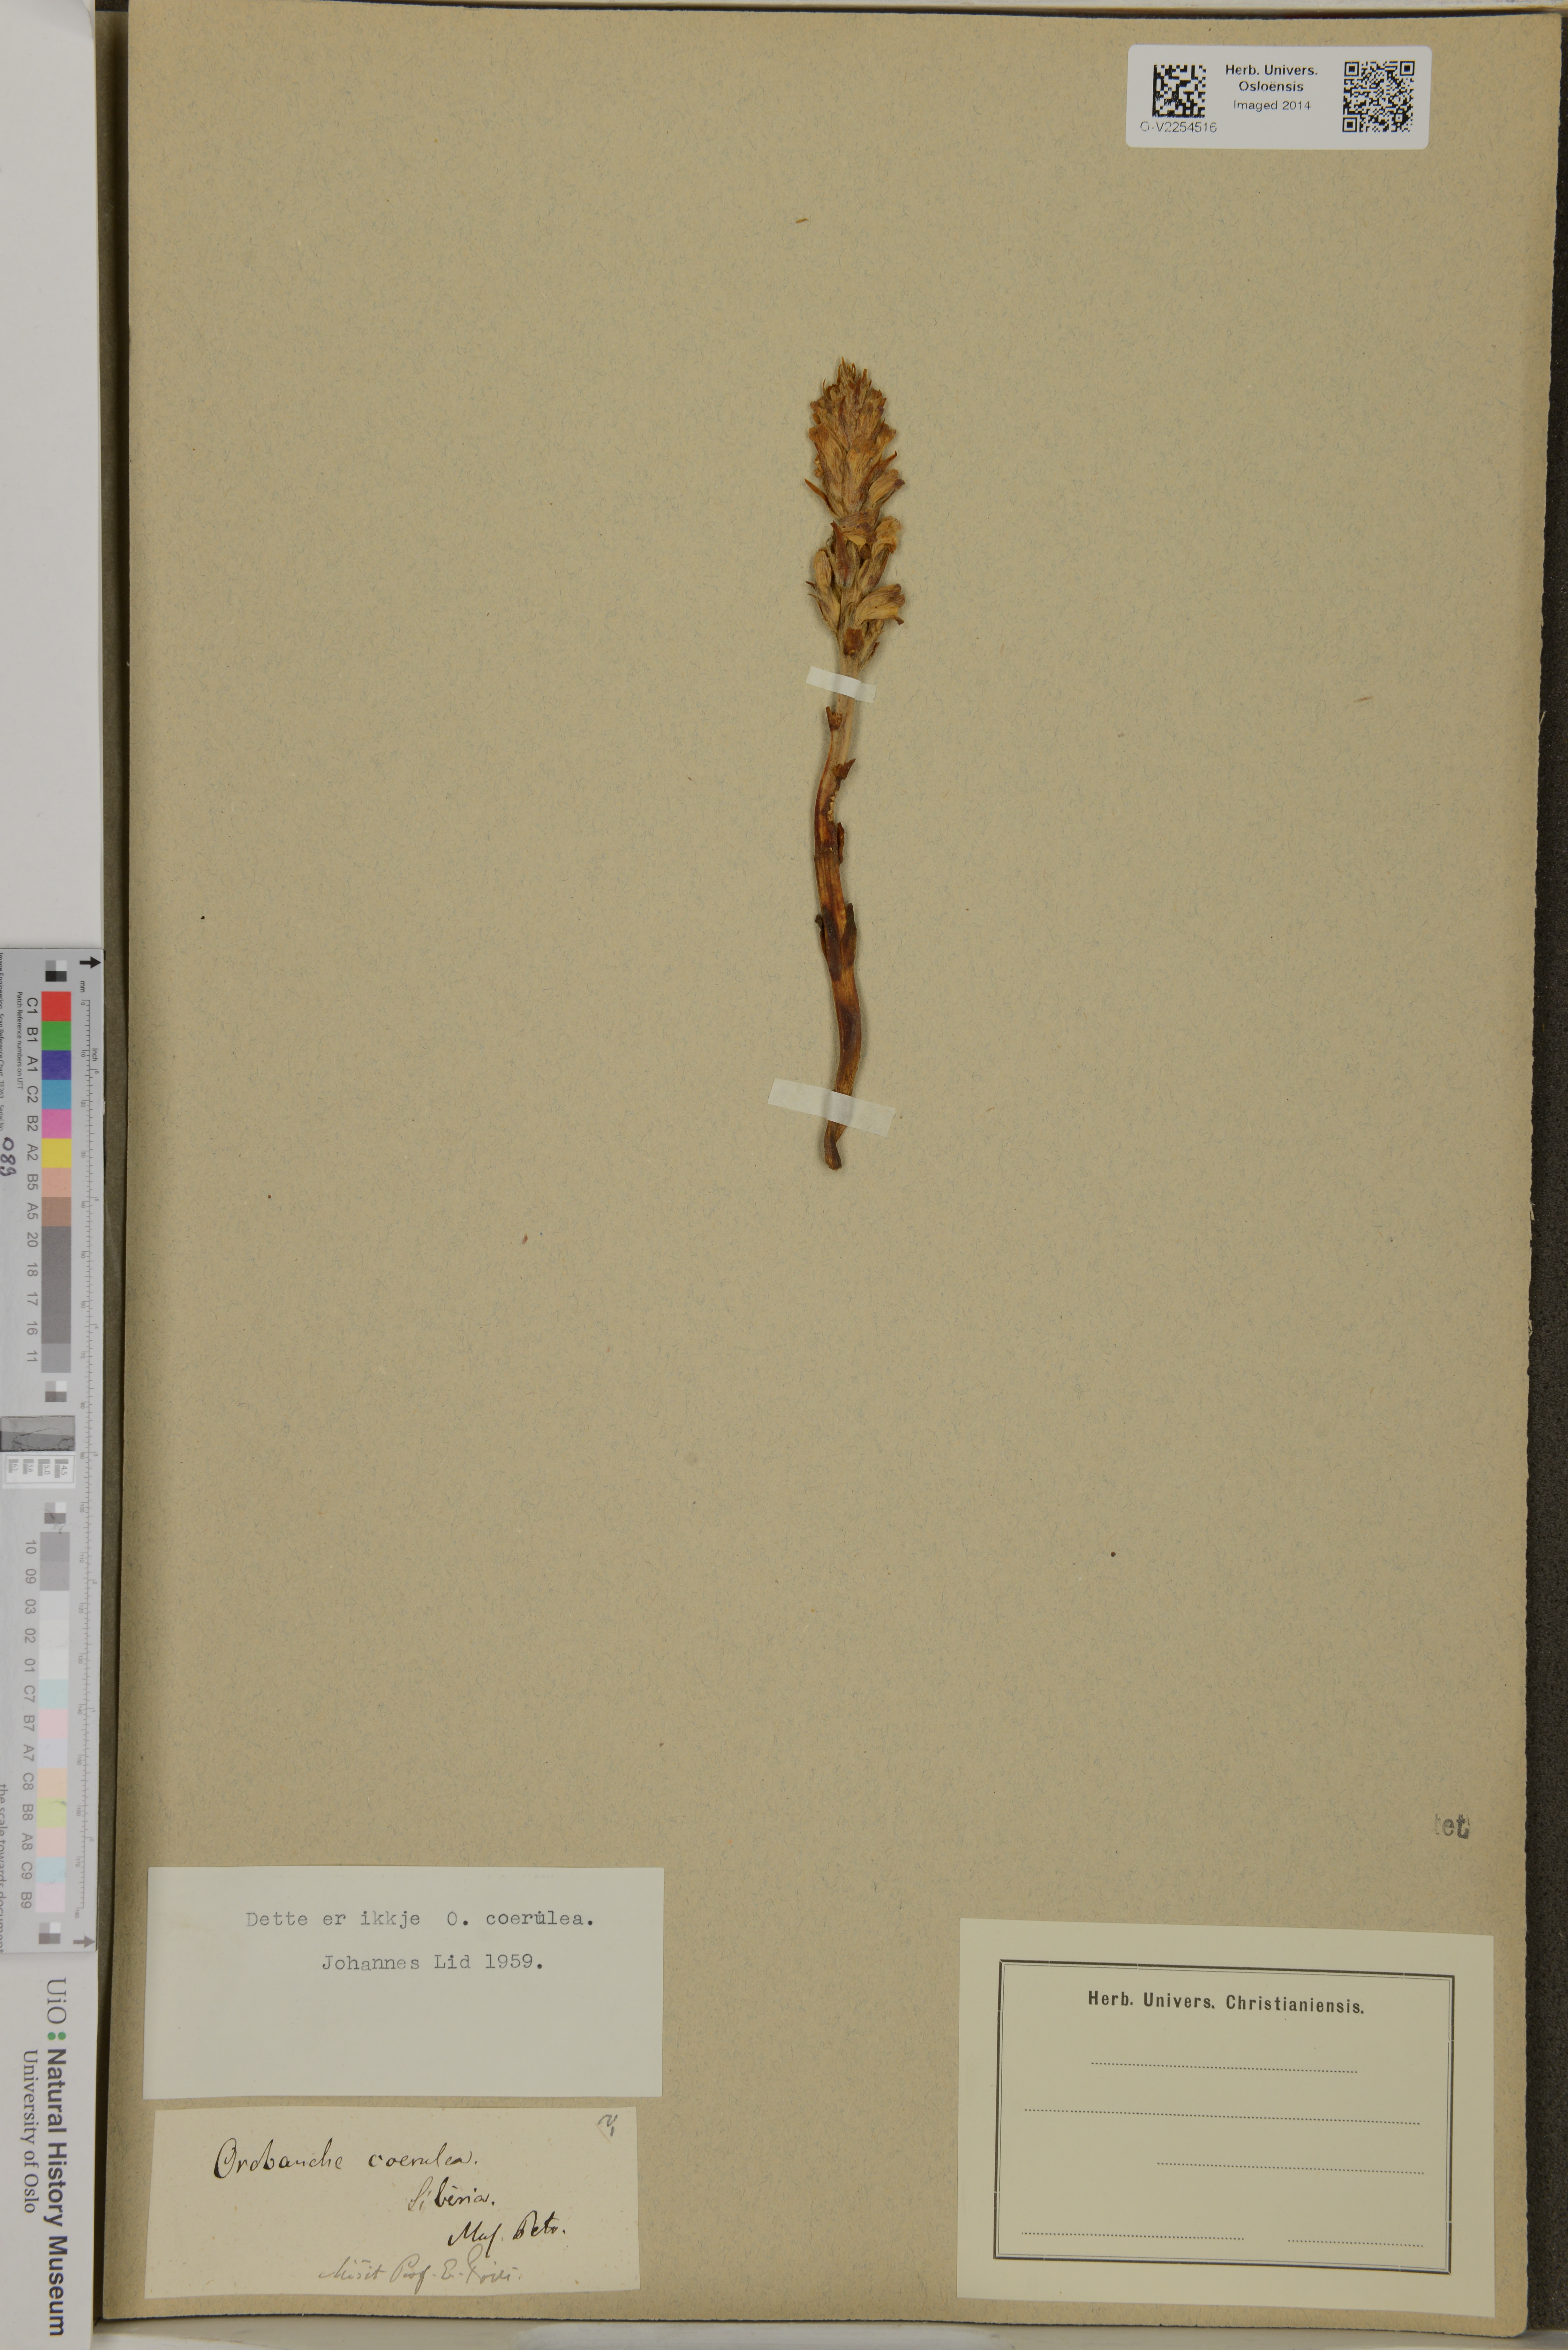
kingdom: Plantae
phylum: Tracheophyta
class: Magnoliopsida
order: Lamiales
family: Orobanchaceae
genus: Orobanche
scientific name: Orobanche
